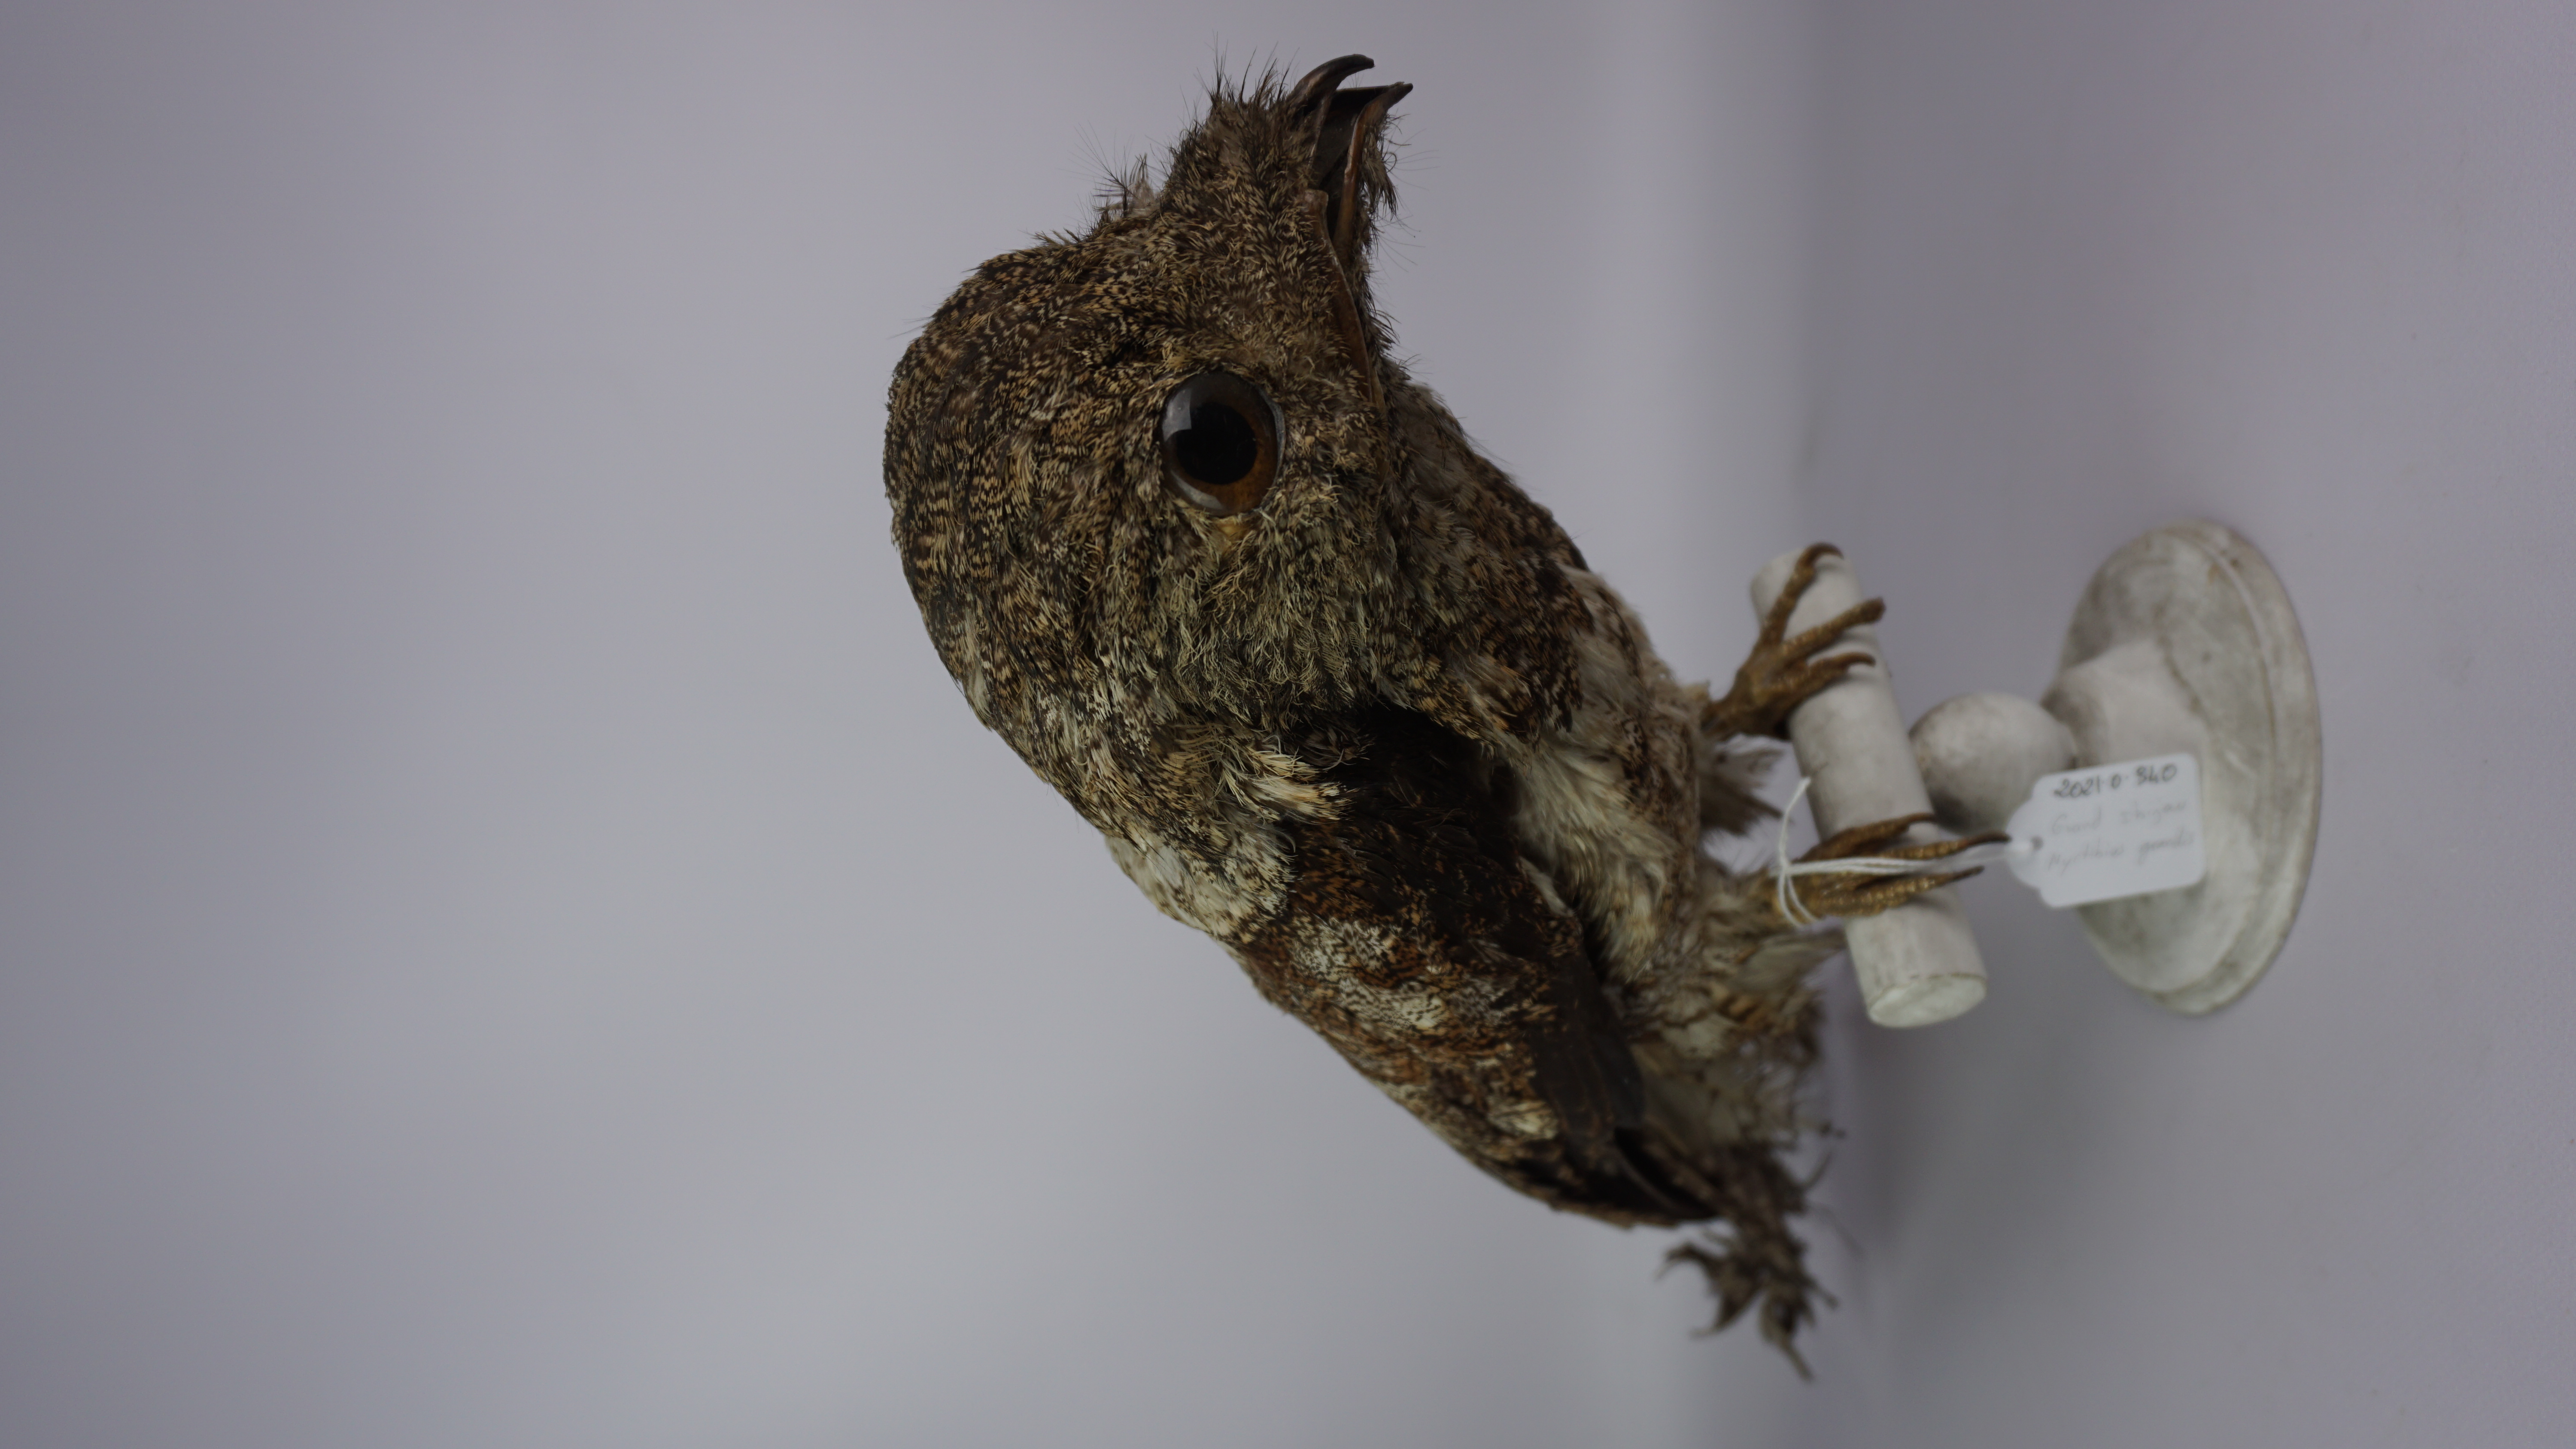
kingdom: Animalia
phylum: Chordata
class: Aves
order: Nyctibiiformes
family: Nyctibiidae
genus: Nyctibius
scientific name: Nyctibius grandis
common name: Great potoo
